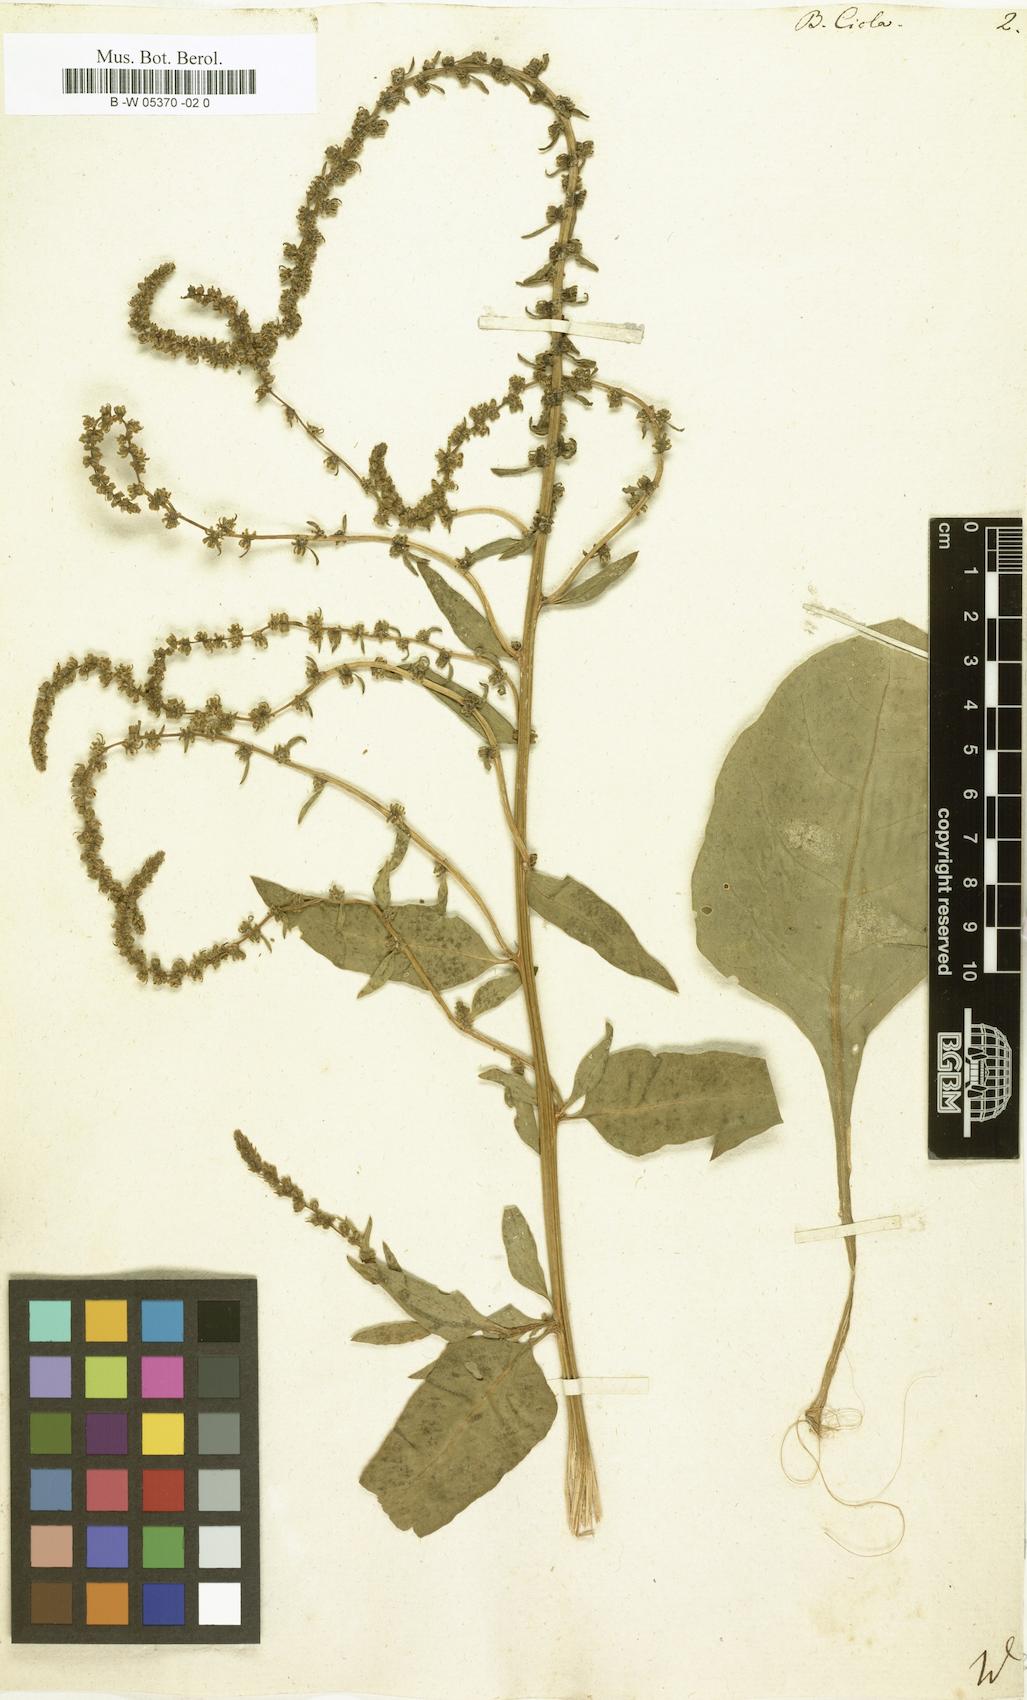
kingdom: Plantae
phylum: Tracheophyta
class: Magnoliopsida
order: Caryophyllales
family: Amaranthaceae
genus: Beta
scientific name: Beta
